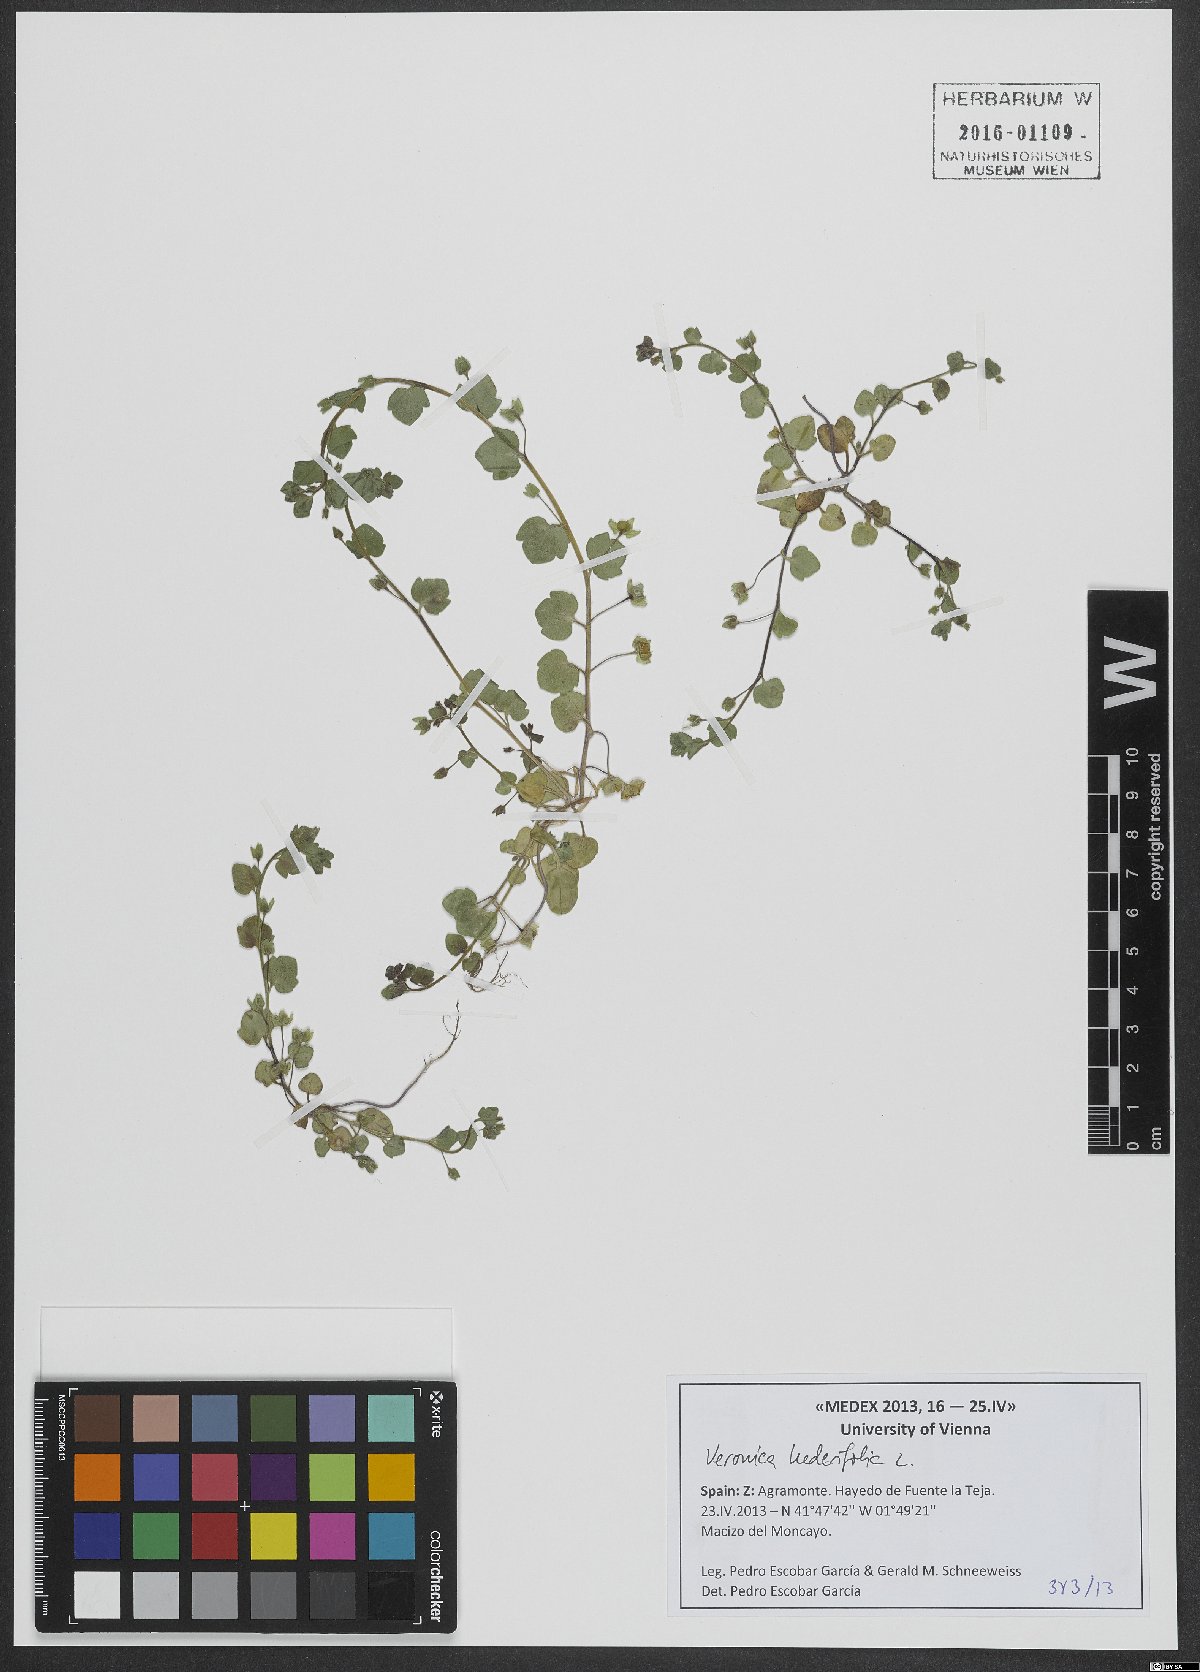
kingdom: Plantae
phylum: Tracheophyta
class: Magnoliopsida
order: Lamiales
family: Plantaginaceae
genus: Veronica
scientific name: Veronica hederifolia
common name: Ivy-leaved speedwell
